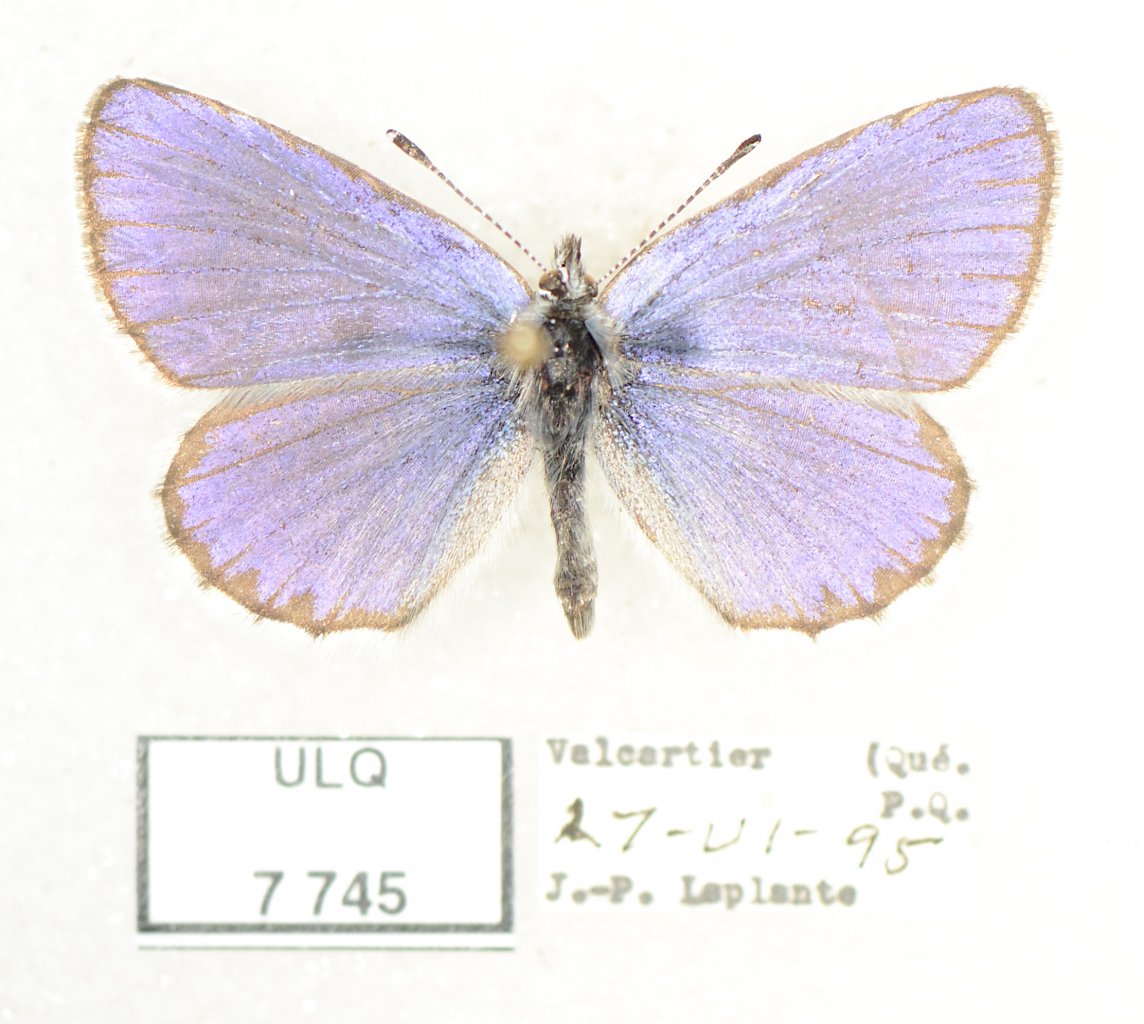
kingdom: Animalia
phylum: Arthropoda
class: Insecta
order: Lepidoptera
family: Lycaenidae
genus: Celastrina
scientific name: Celastrina lucia
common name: Northern Spring Azure
